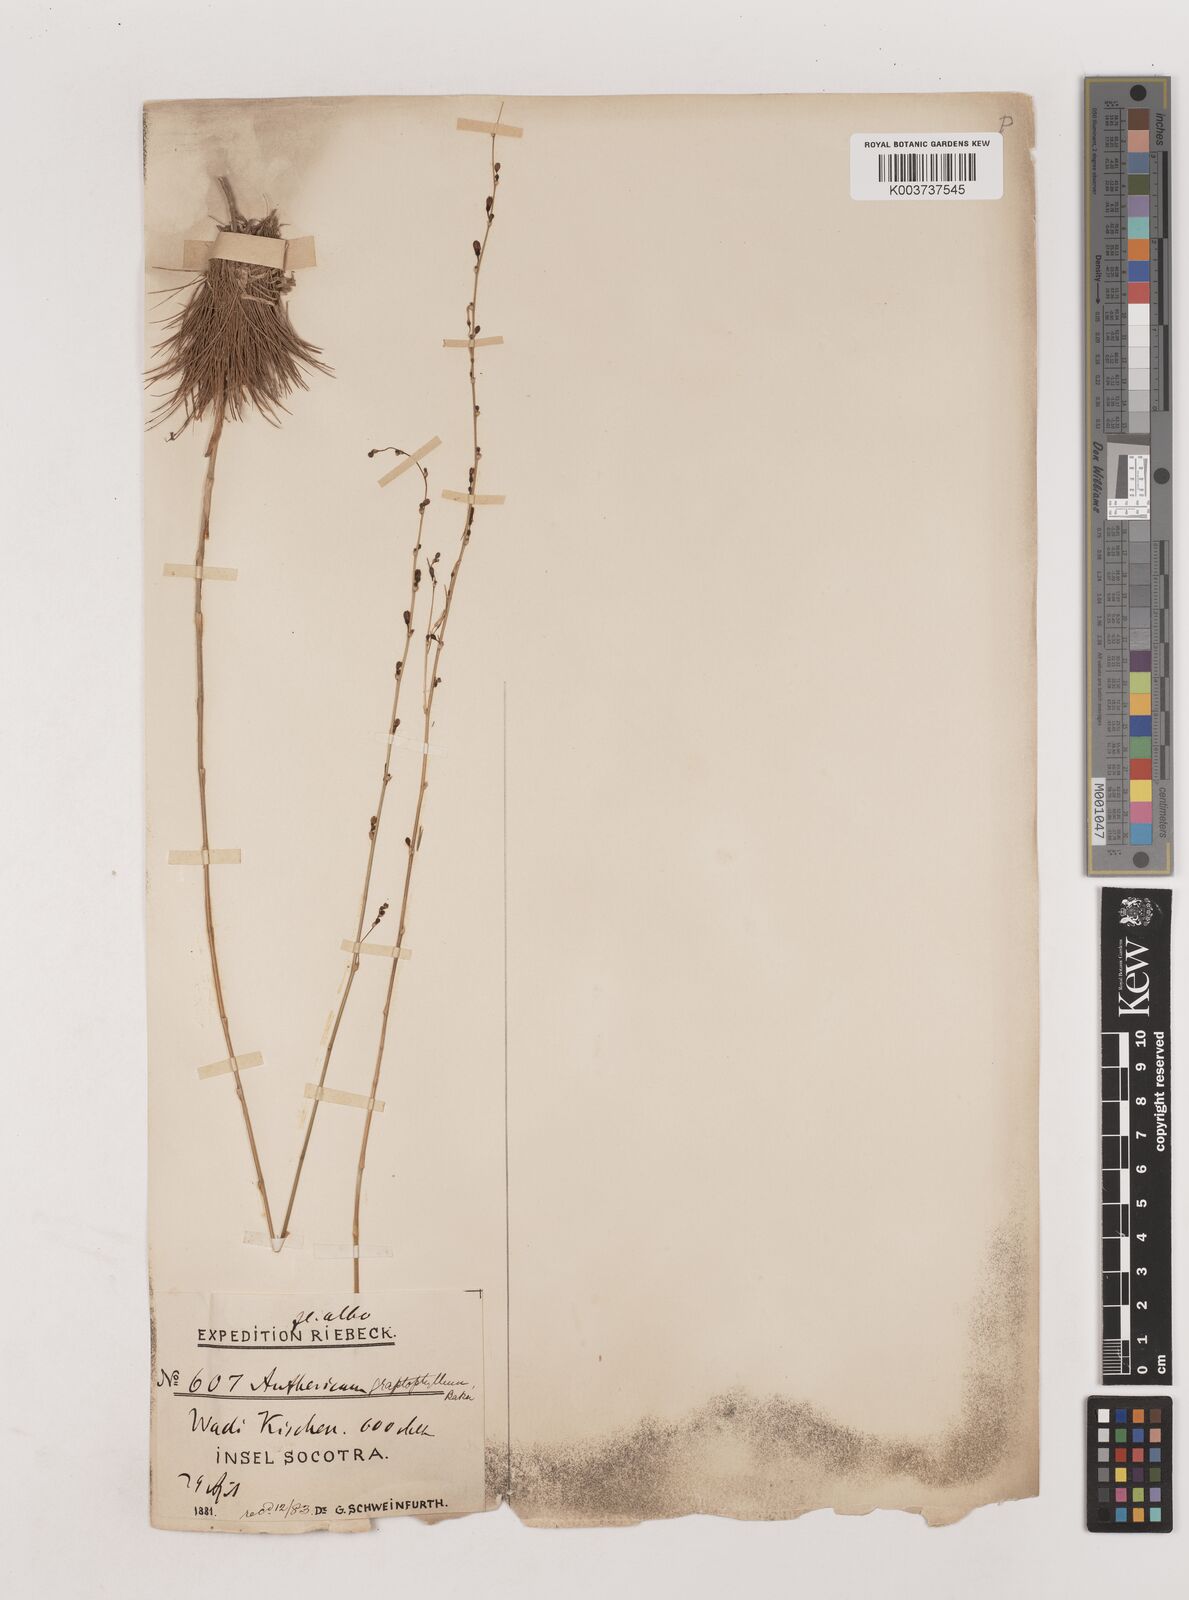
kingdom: Plantae
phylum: Tracheophyta
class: Liliopsida
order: Asparagales
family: Asparagaceae
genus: Chlorophytum
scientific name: Chlorophytum graptophyllum
